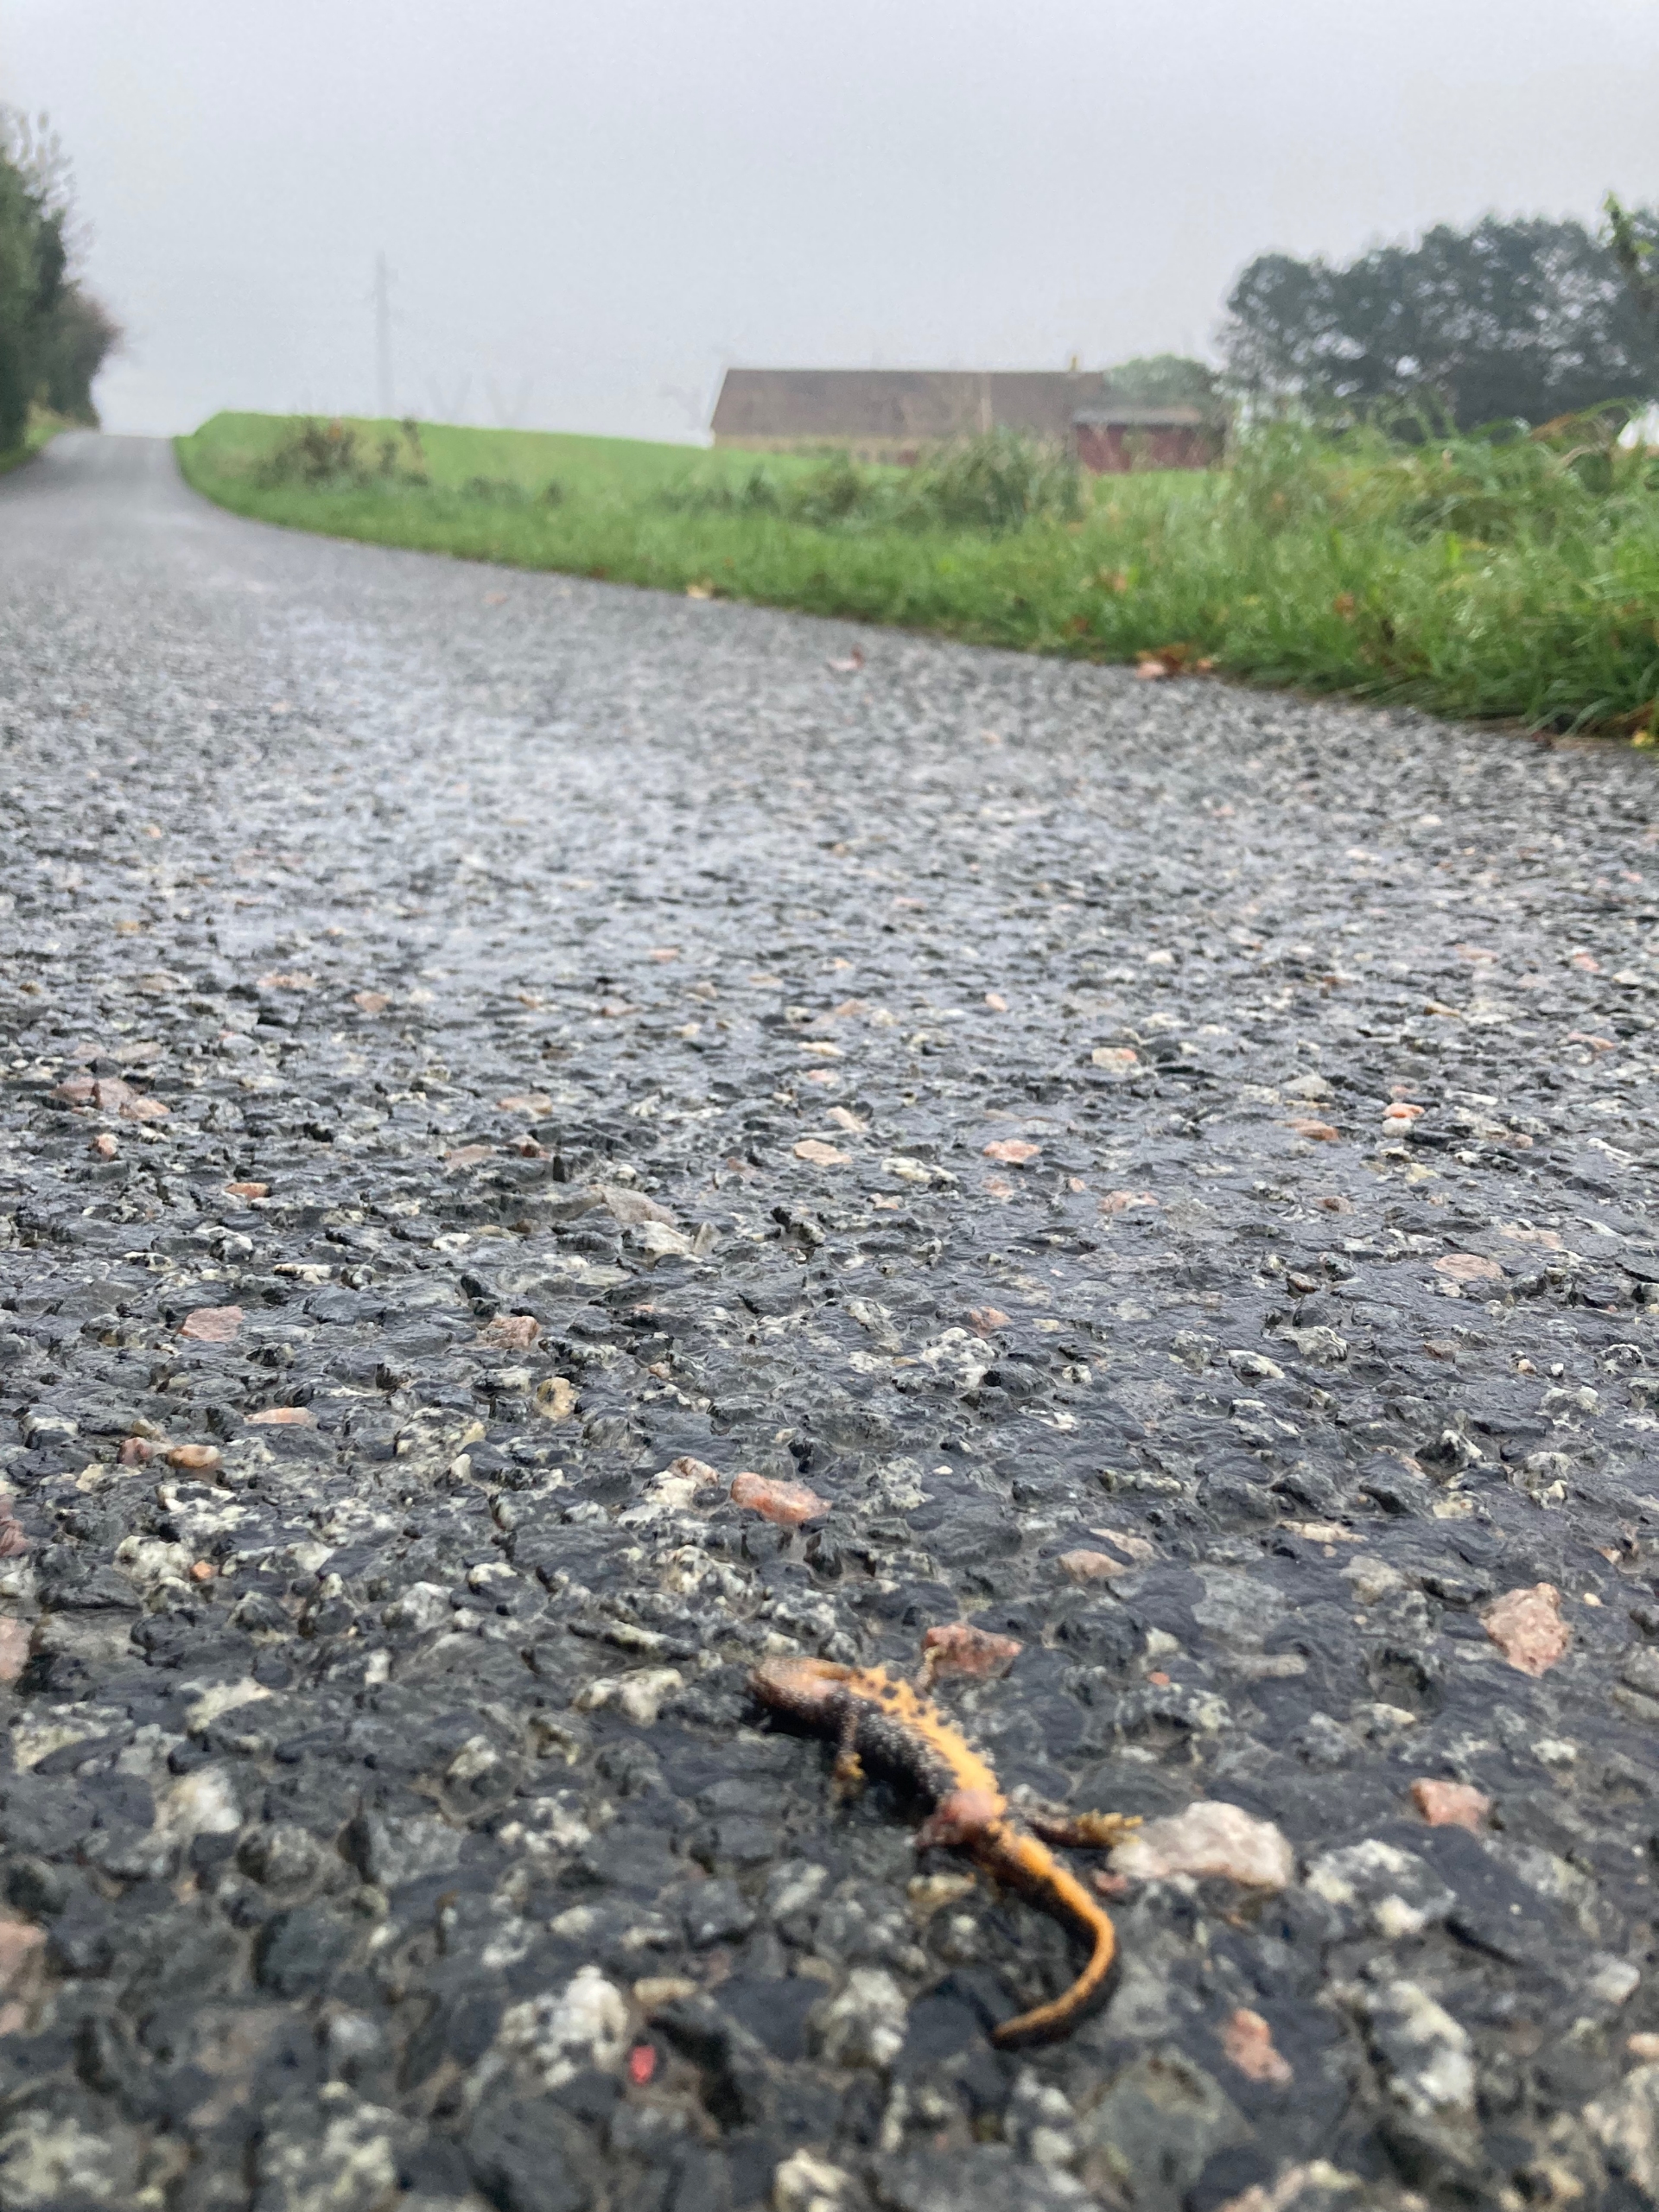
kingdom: Animalia
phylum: Chordata
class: Amphibia
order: Caudata
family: Salamandridae
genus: Triturus
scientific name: Triturus cristatus
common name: Stor vandsalamander
